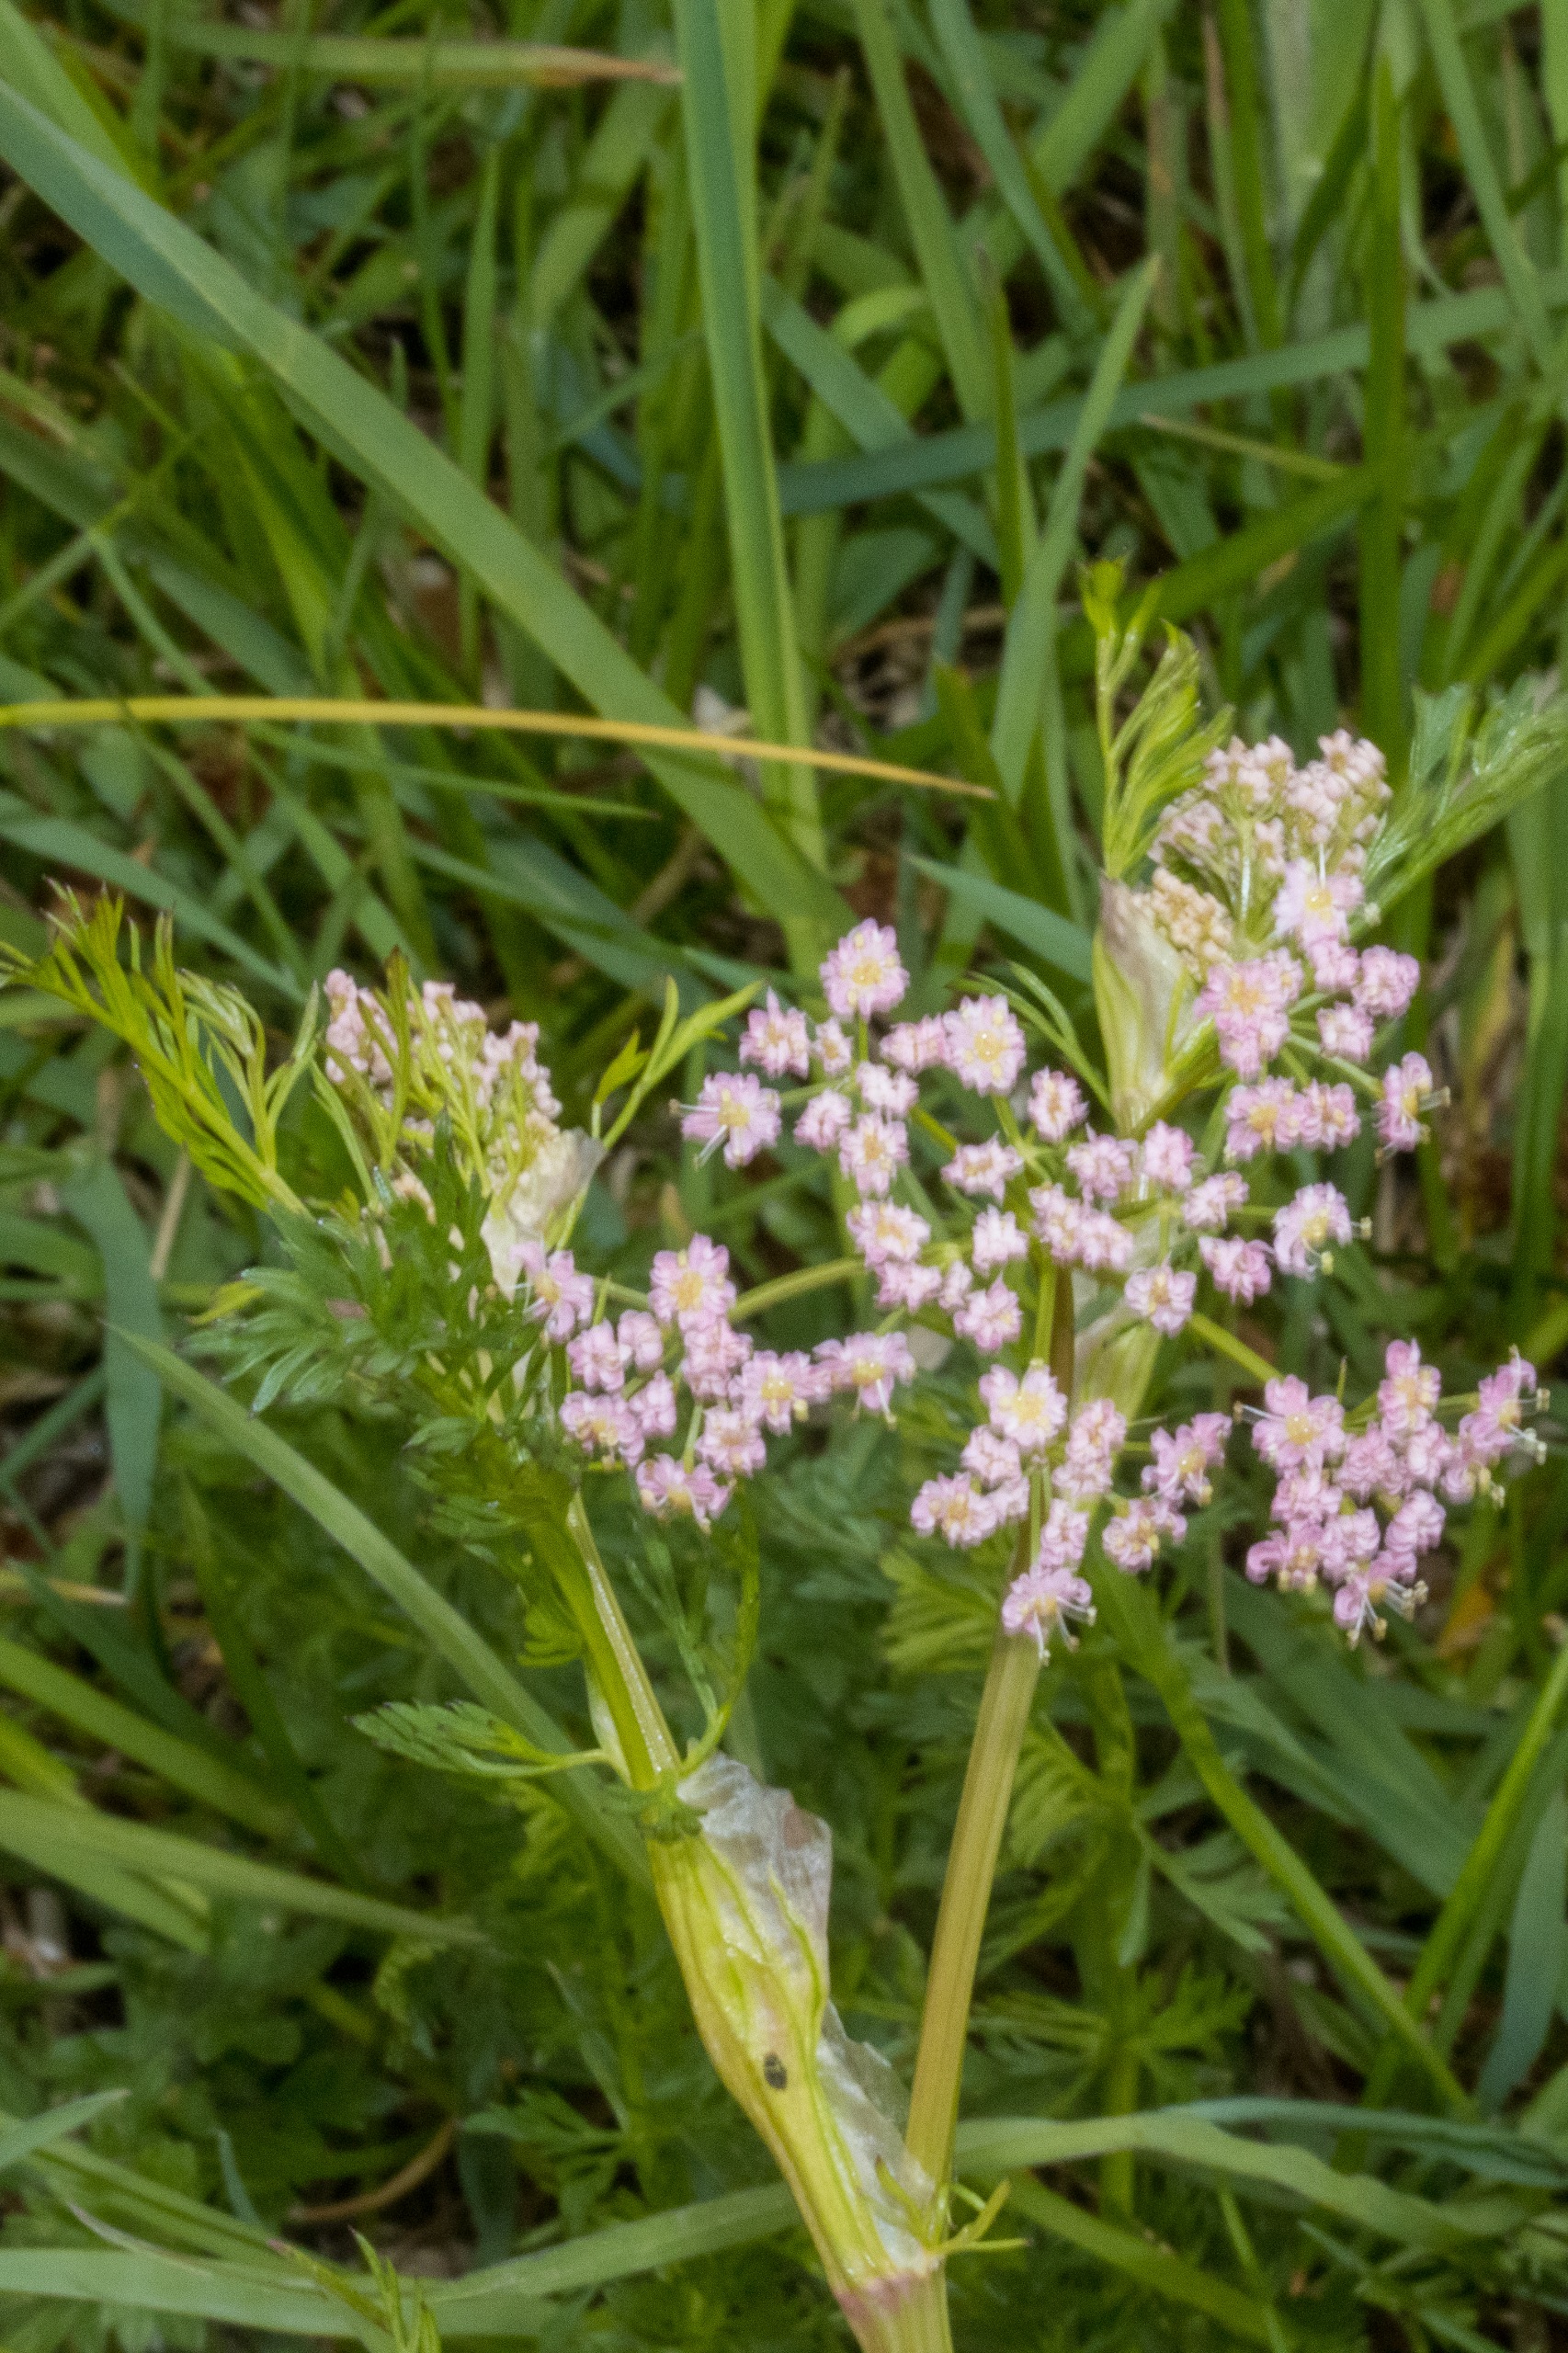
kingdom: Plantae
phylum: Tracheophyta
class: Magnoliopsida
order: Apiales
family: Apiaceae
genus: Carum
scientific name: Carum carvi
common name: Kommen
